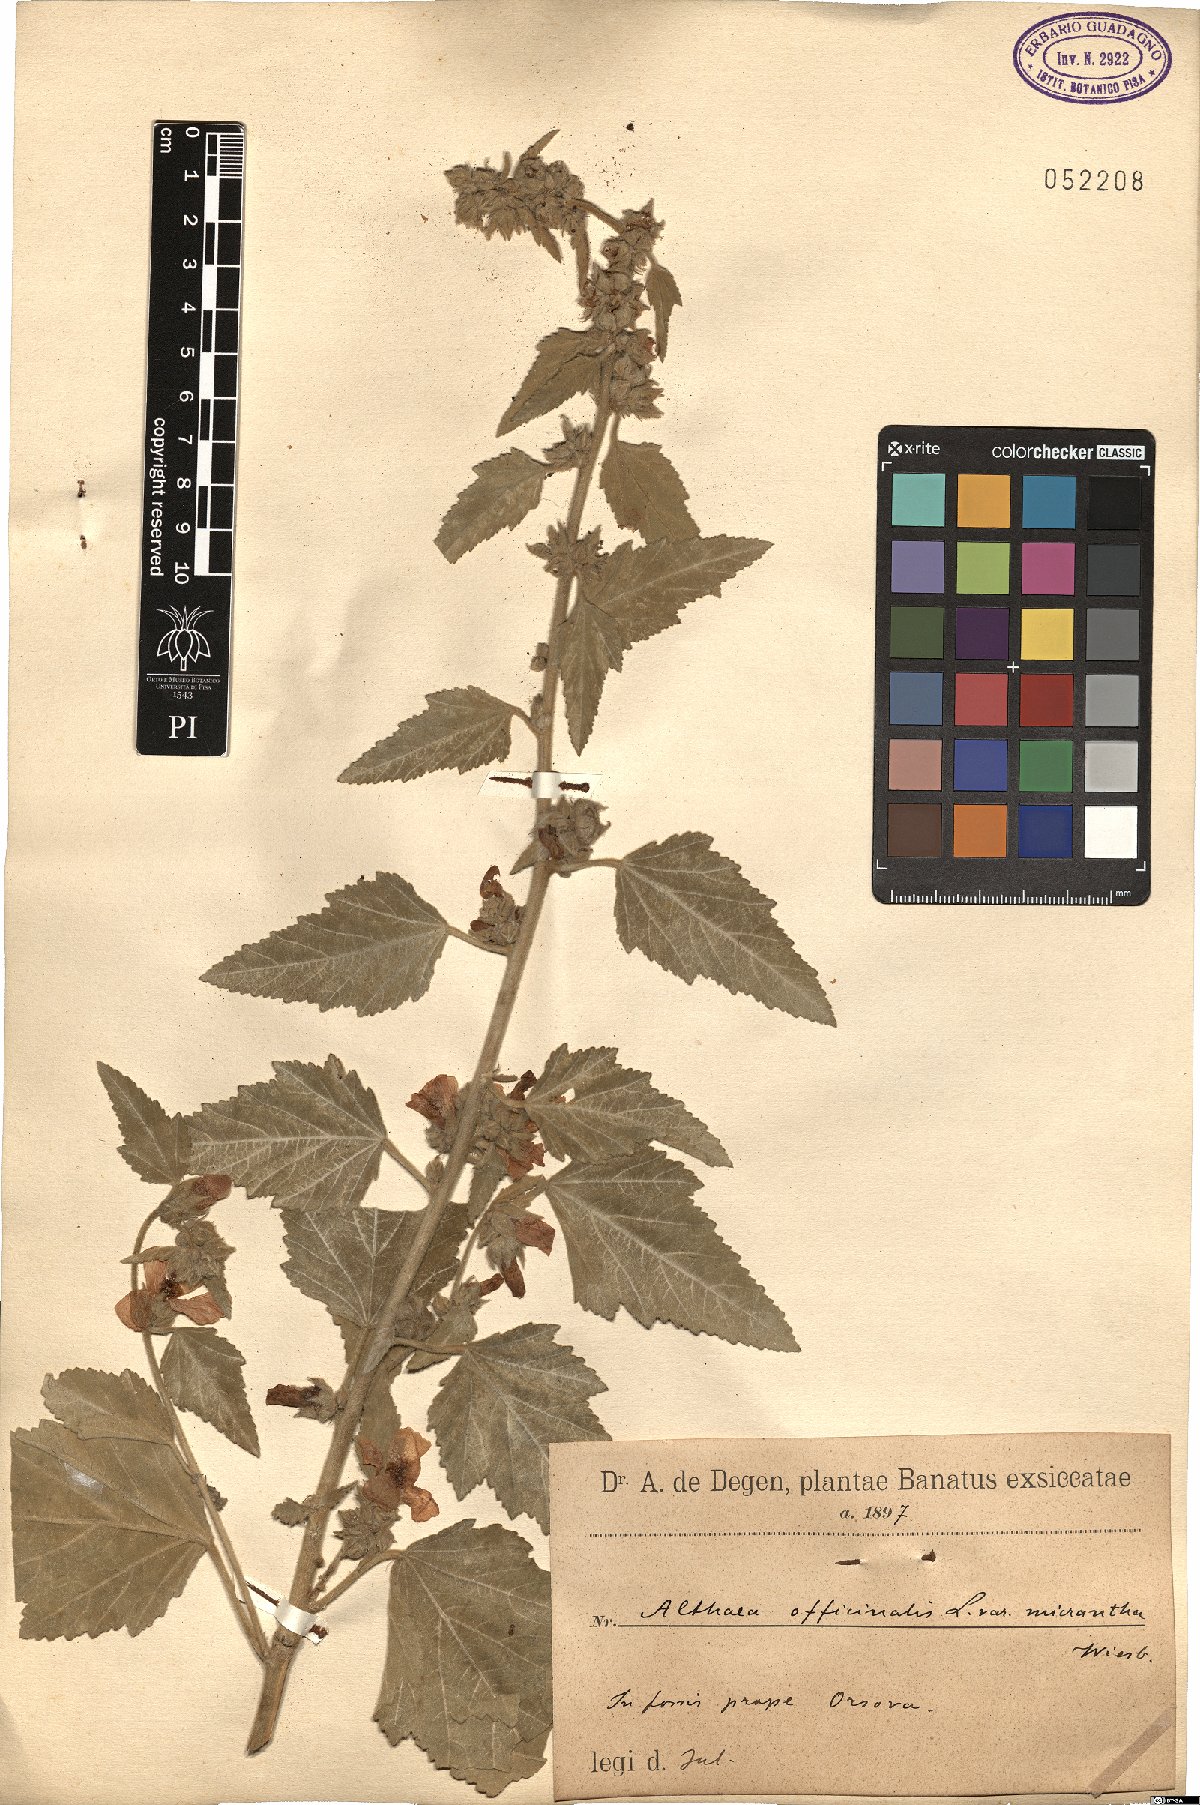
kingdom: Plantae
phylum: Tracheophyta
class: Magnoliopsida
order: Malvales
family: Malvaceae
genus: Althaea
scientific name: Althaea armeniaca
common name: Armenian marshmallow
